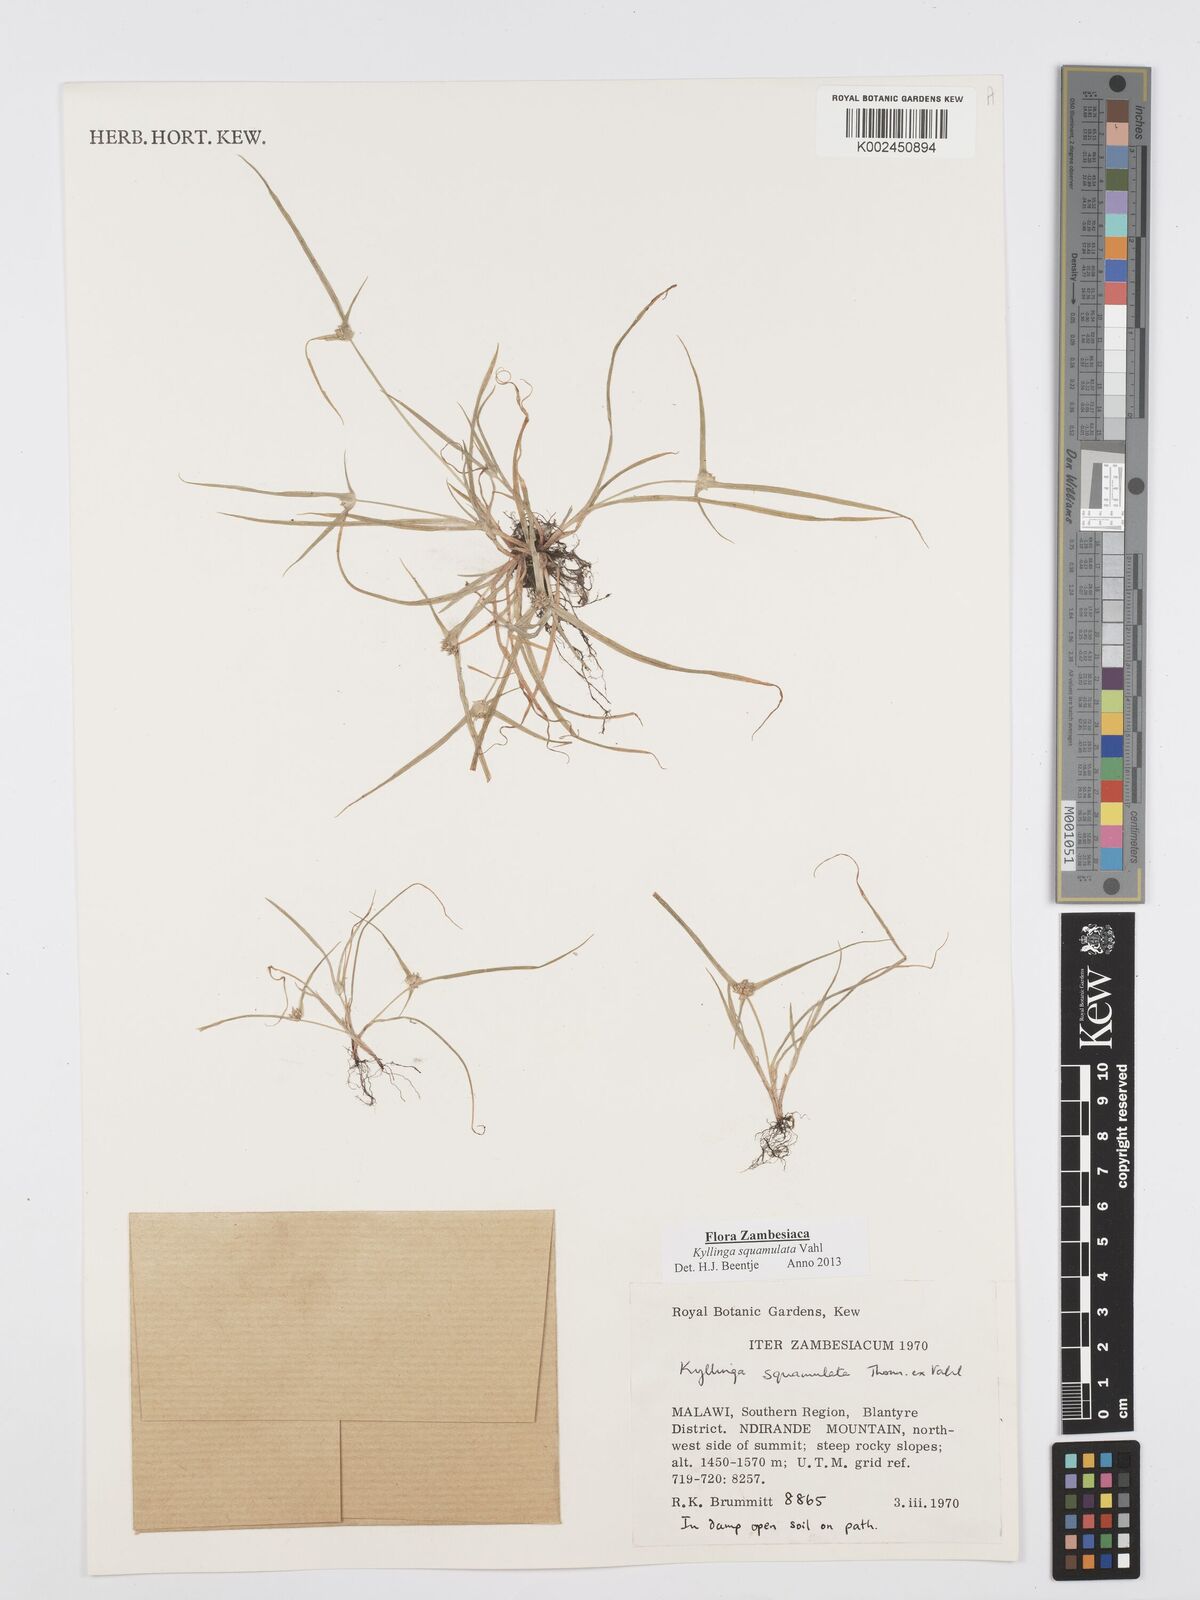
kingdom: Plantae
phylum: Tracheophyta
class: Liliopsida
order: Poales
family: Cyperaceae
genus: Cyperus
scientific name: Cyperus distans
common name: Slender cyperus
